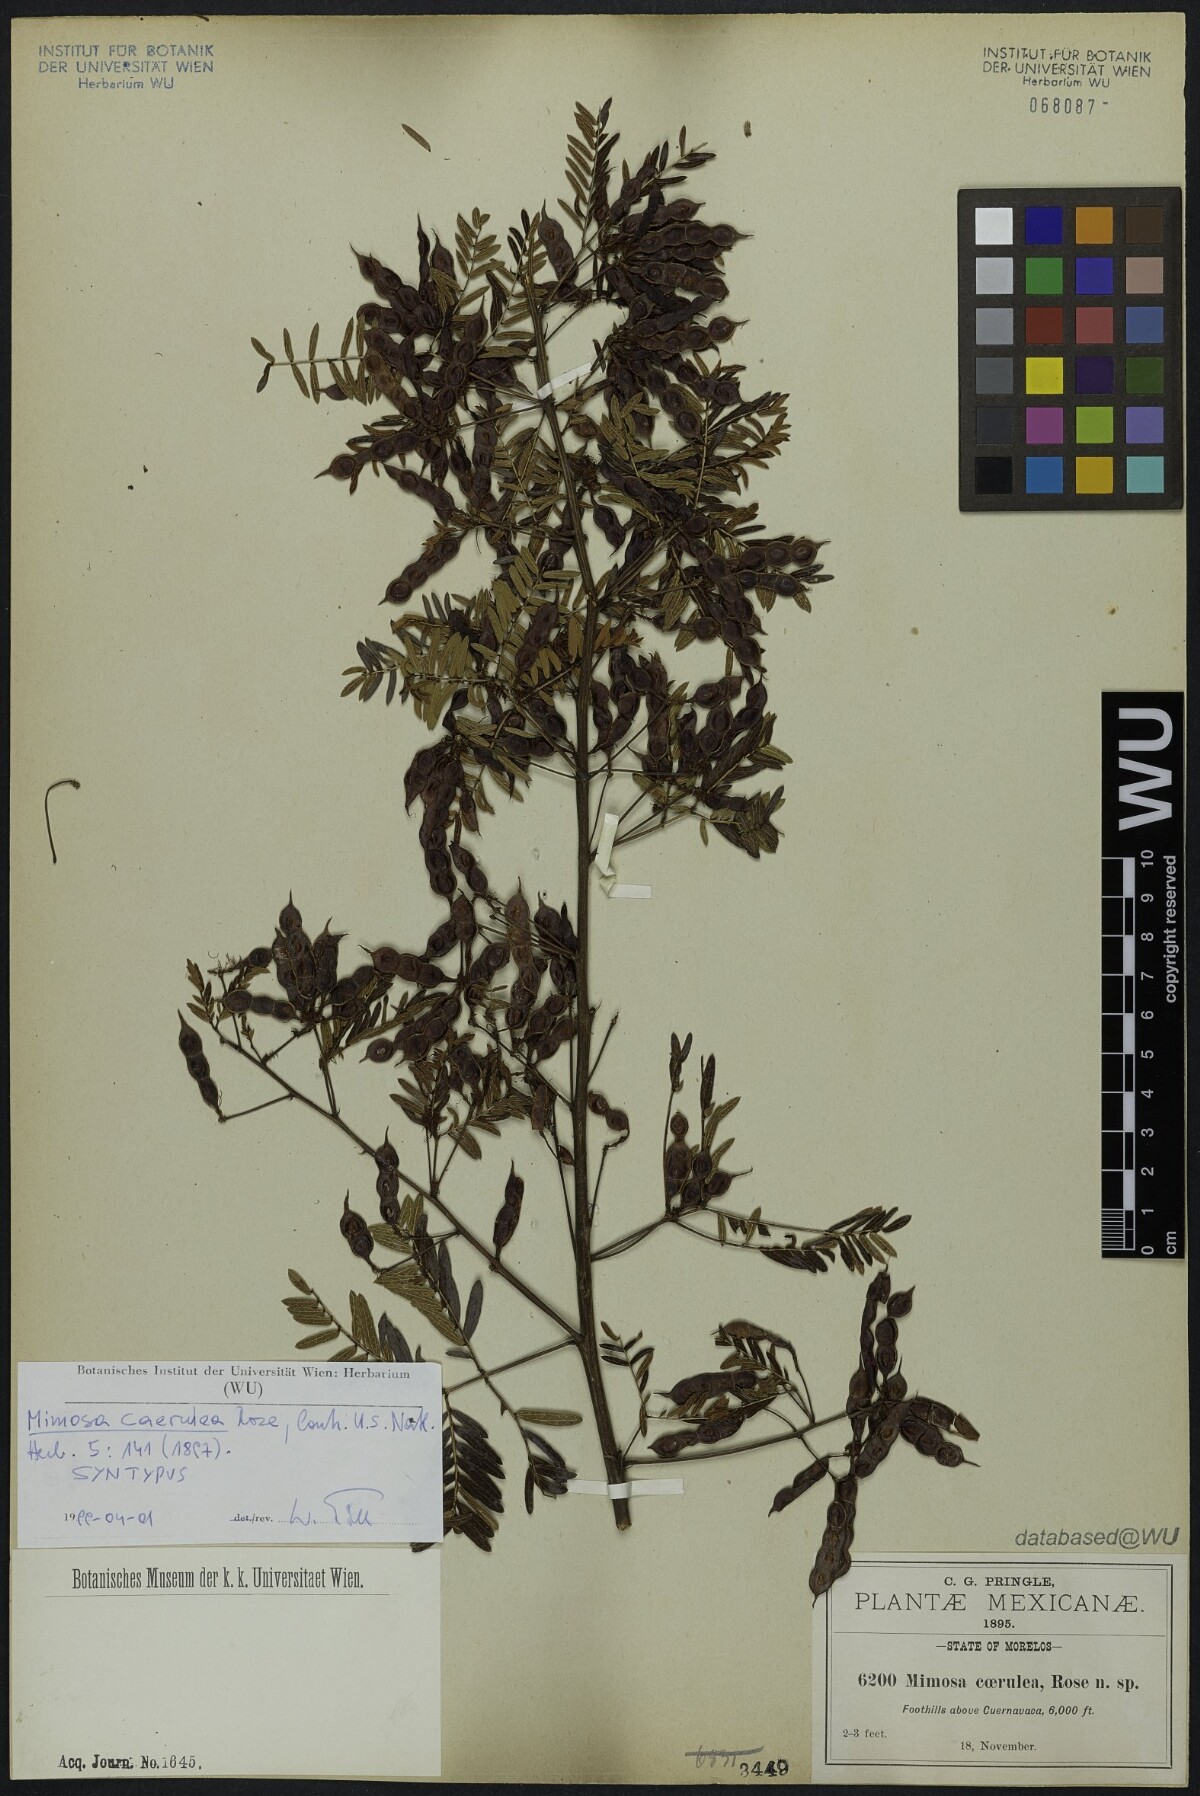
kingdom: Plantae
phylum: Tracheophyta
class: Magnoliopsida
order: Fabales
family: Fabaceae
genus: Mimosa
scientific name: Mimosa caerulea
